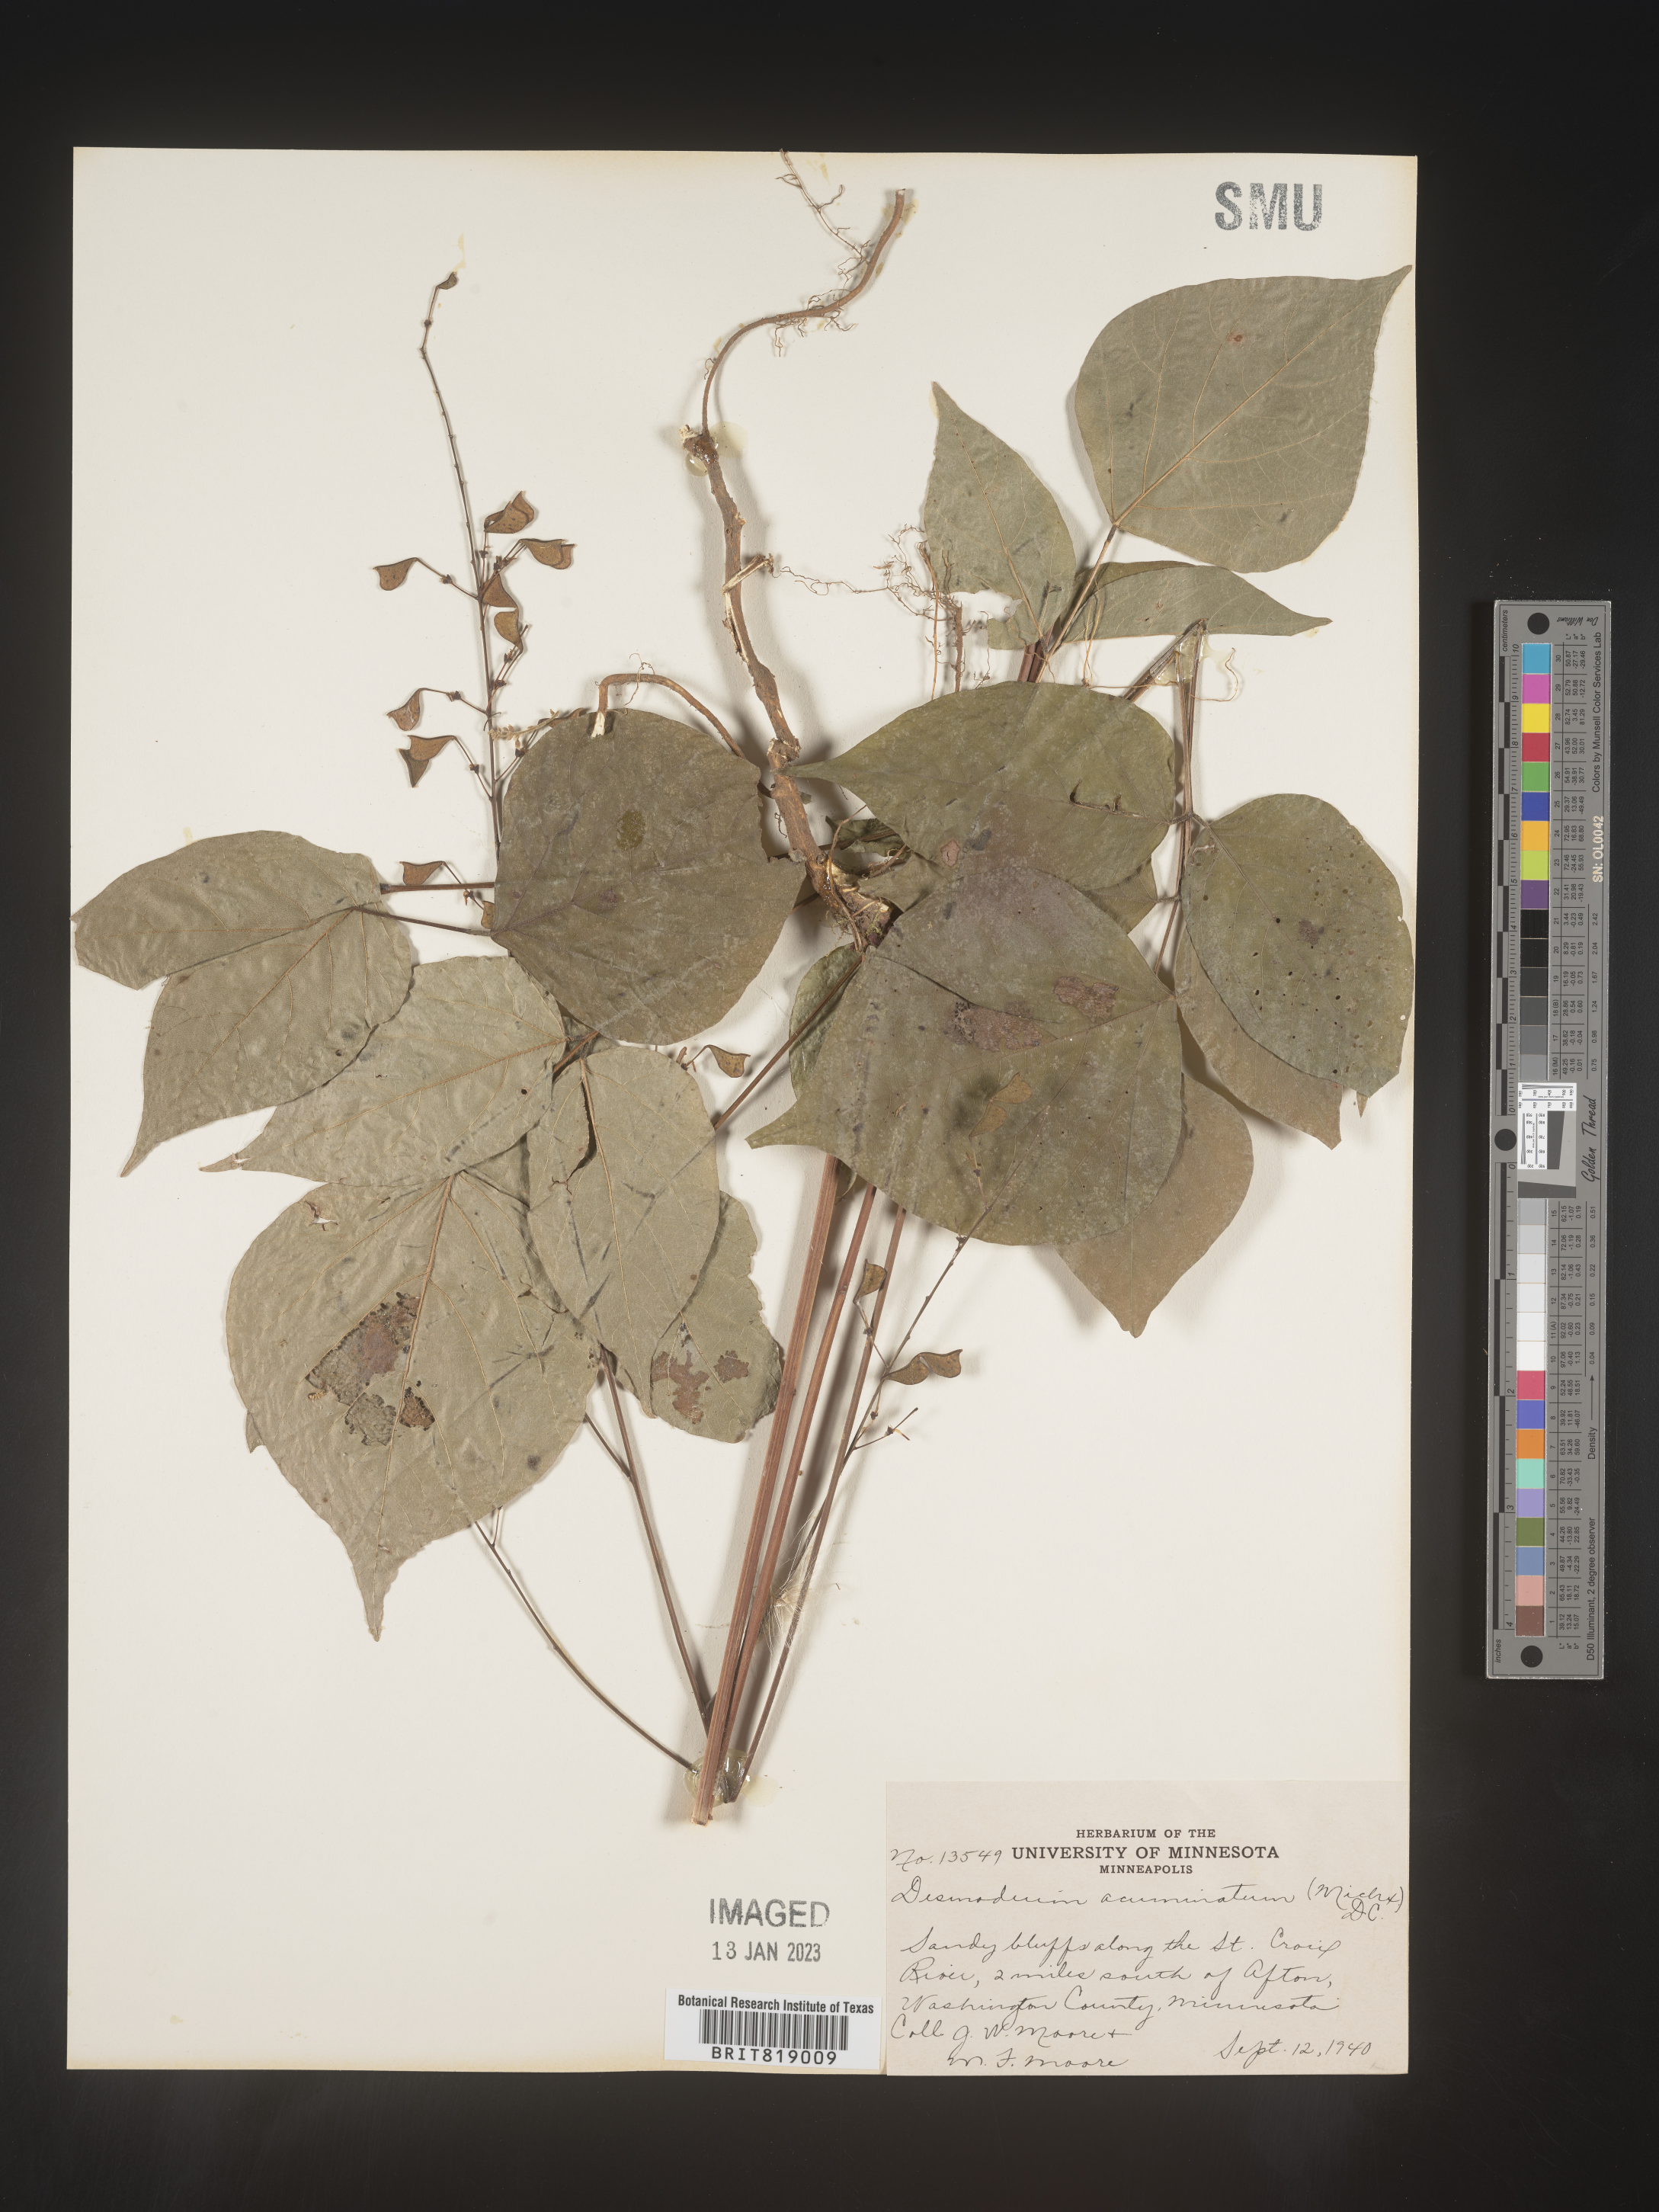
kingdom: Plantae
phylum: Tracheophyta
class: Magnoliopsida
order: Fabales
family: Fabaceae
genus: Hylodesmum
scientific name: Hylodesmum glutinosum
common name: Clustered-leaved tick-trefoil
